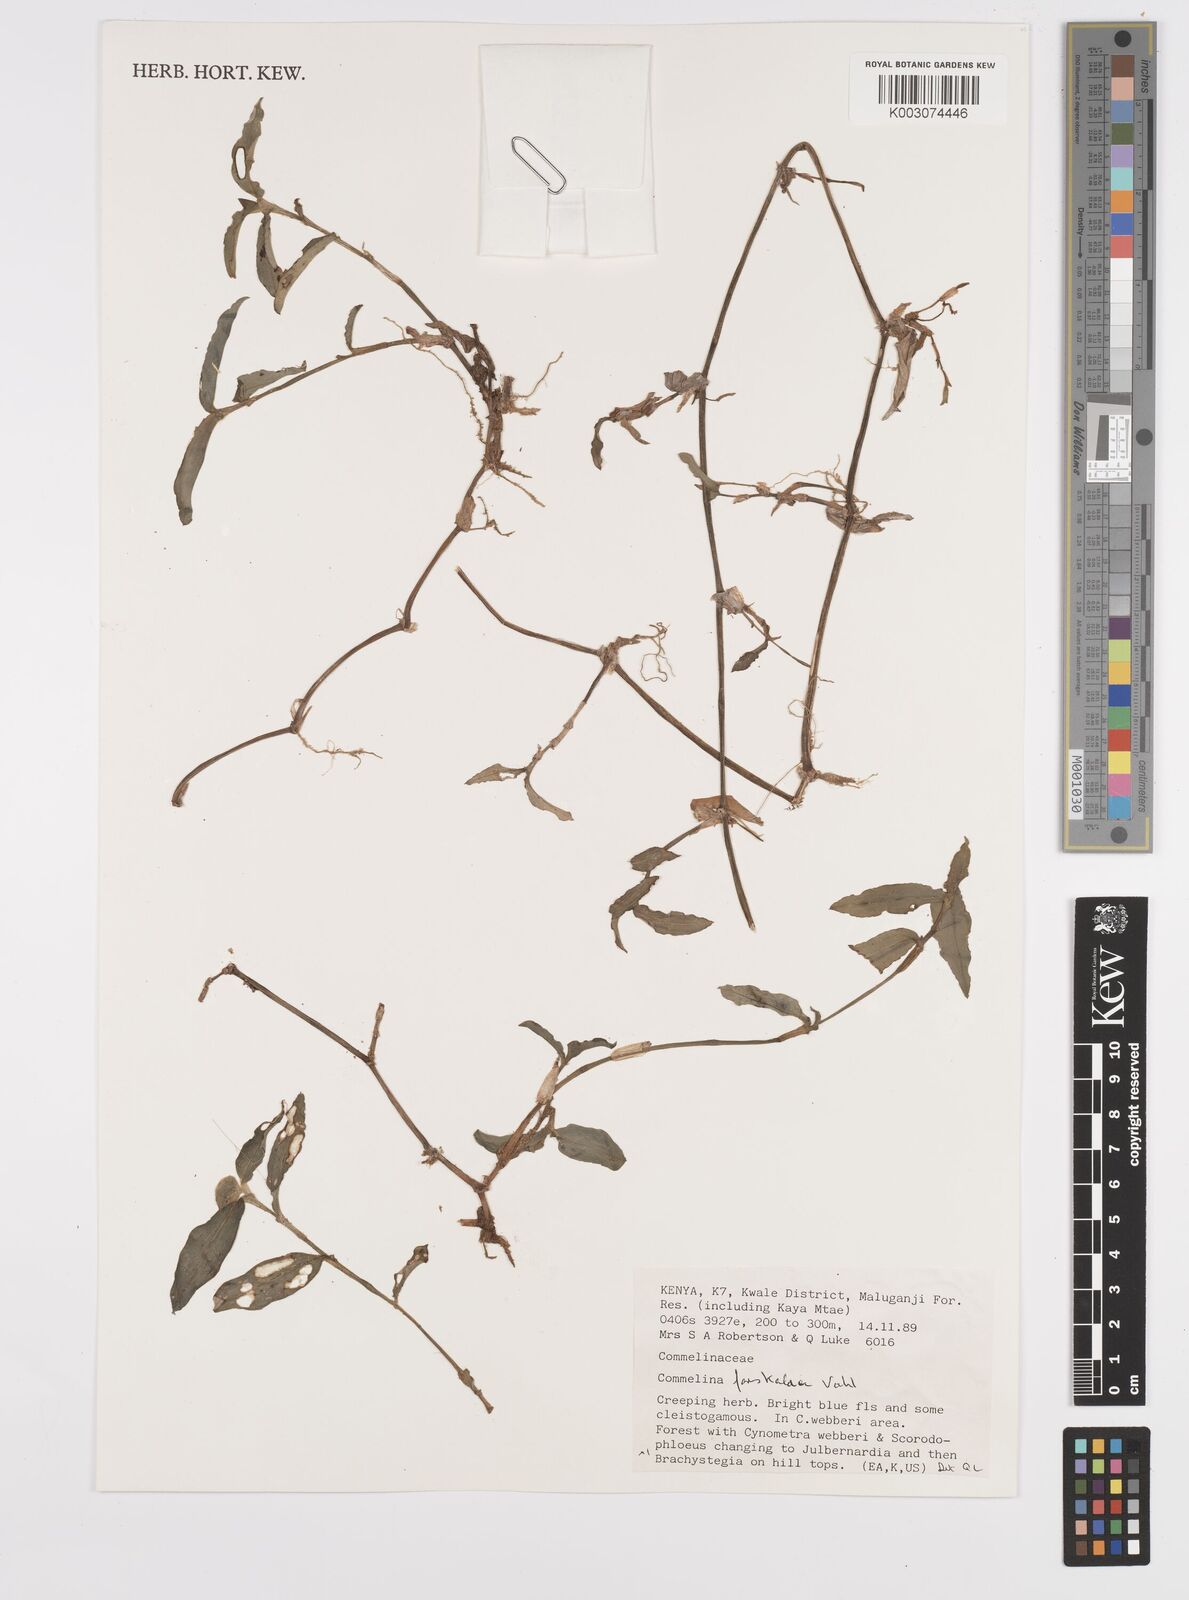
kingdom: Plantae
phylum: Tracheophyta
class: Liliopsida
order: Commelinales
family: Commelinaceae
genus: Commelina
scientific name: Commelina
